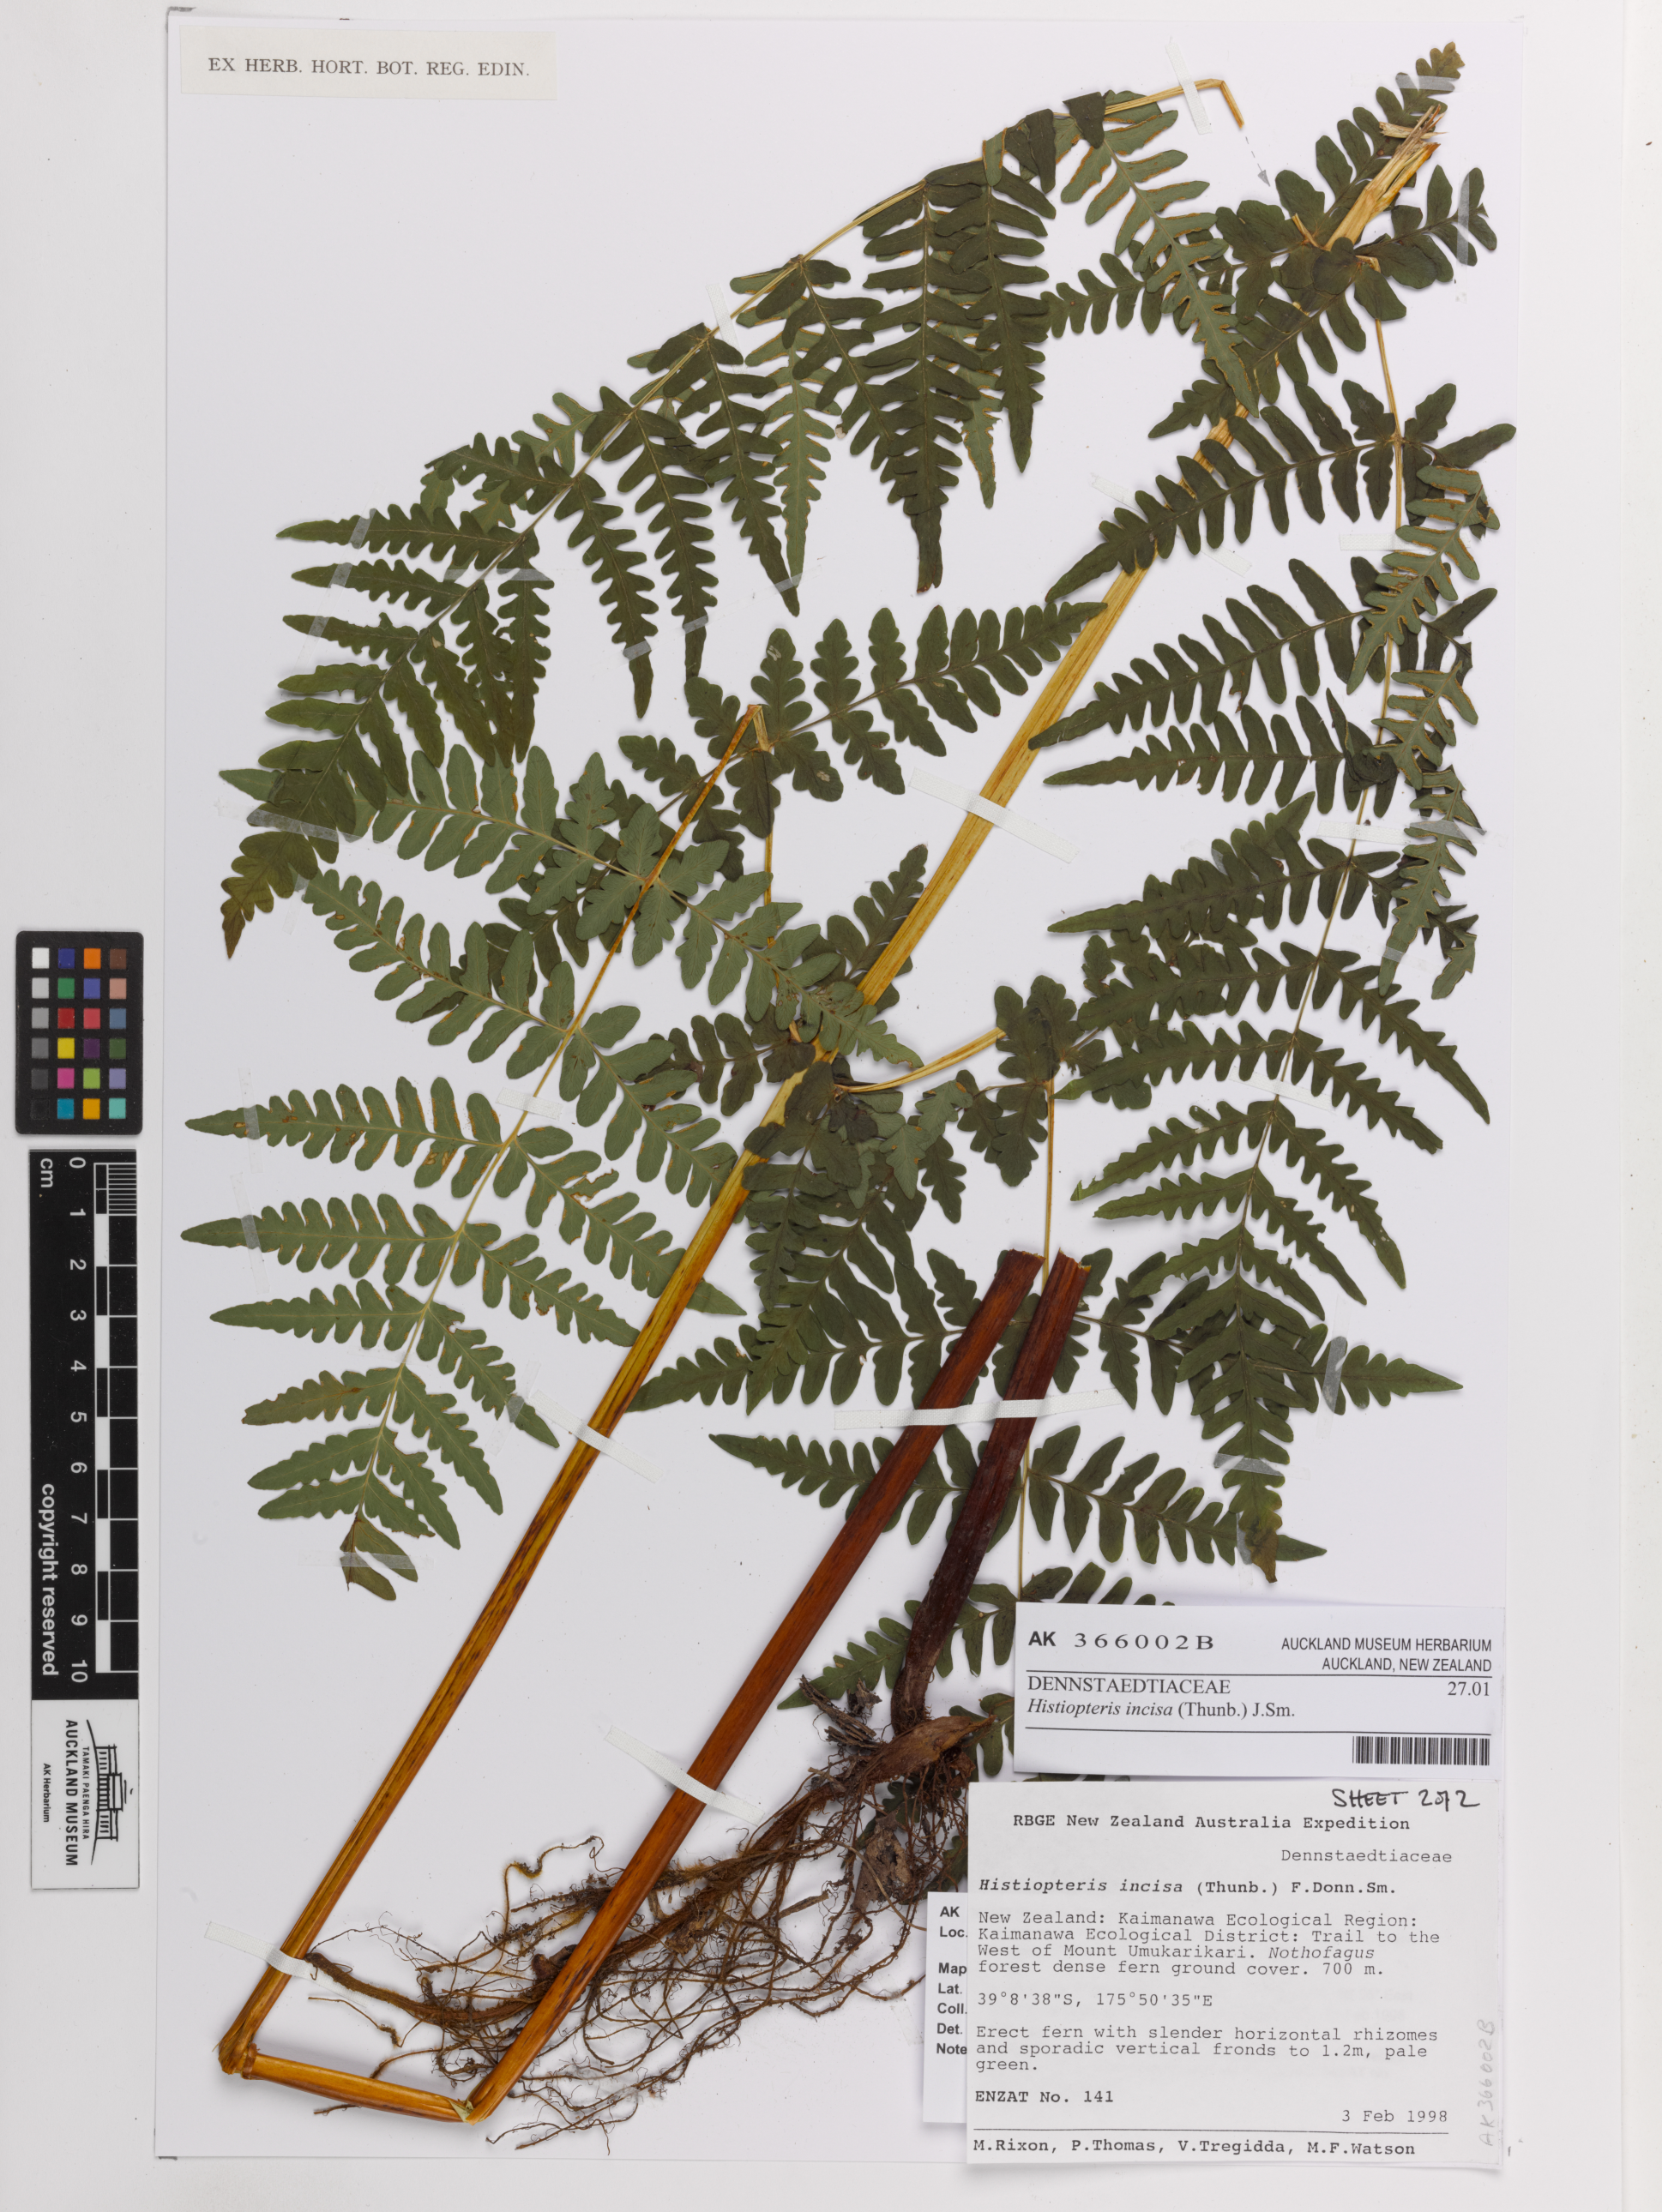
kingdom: Plantae
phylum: Tracheophyta
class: Polypodiopsida
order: Polypodiales
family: Dennstaedtiaceae
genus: Histiopteris
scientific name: Histiopteris incisa
